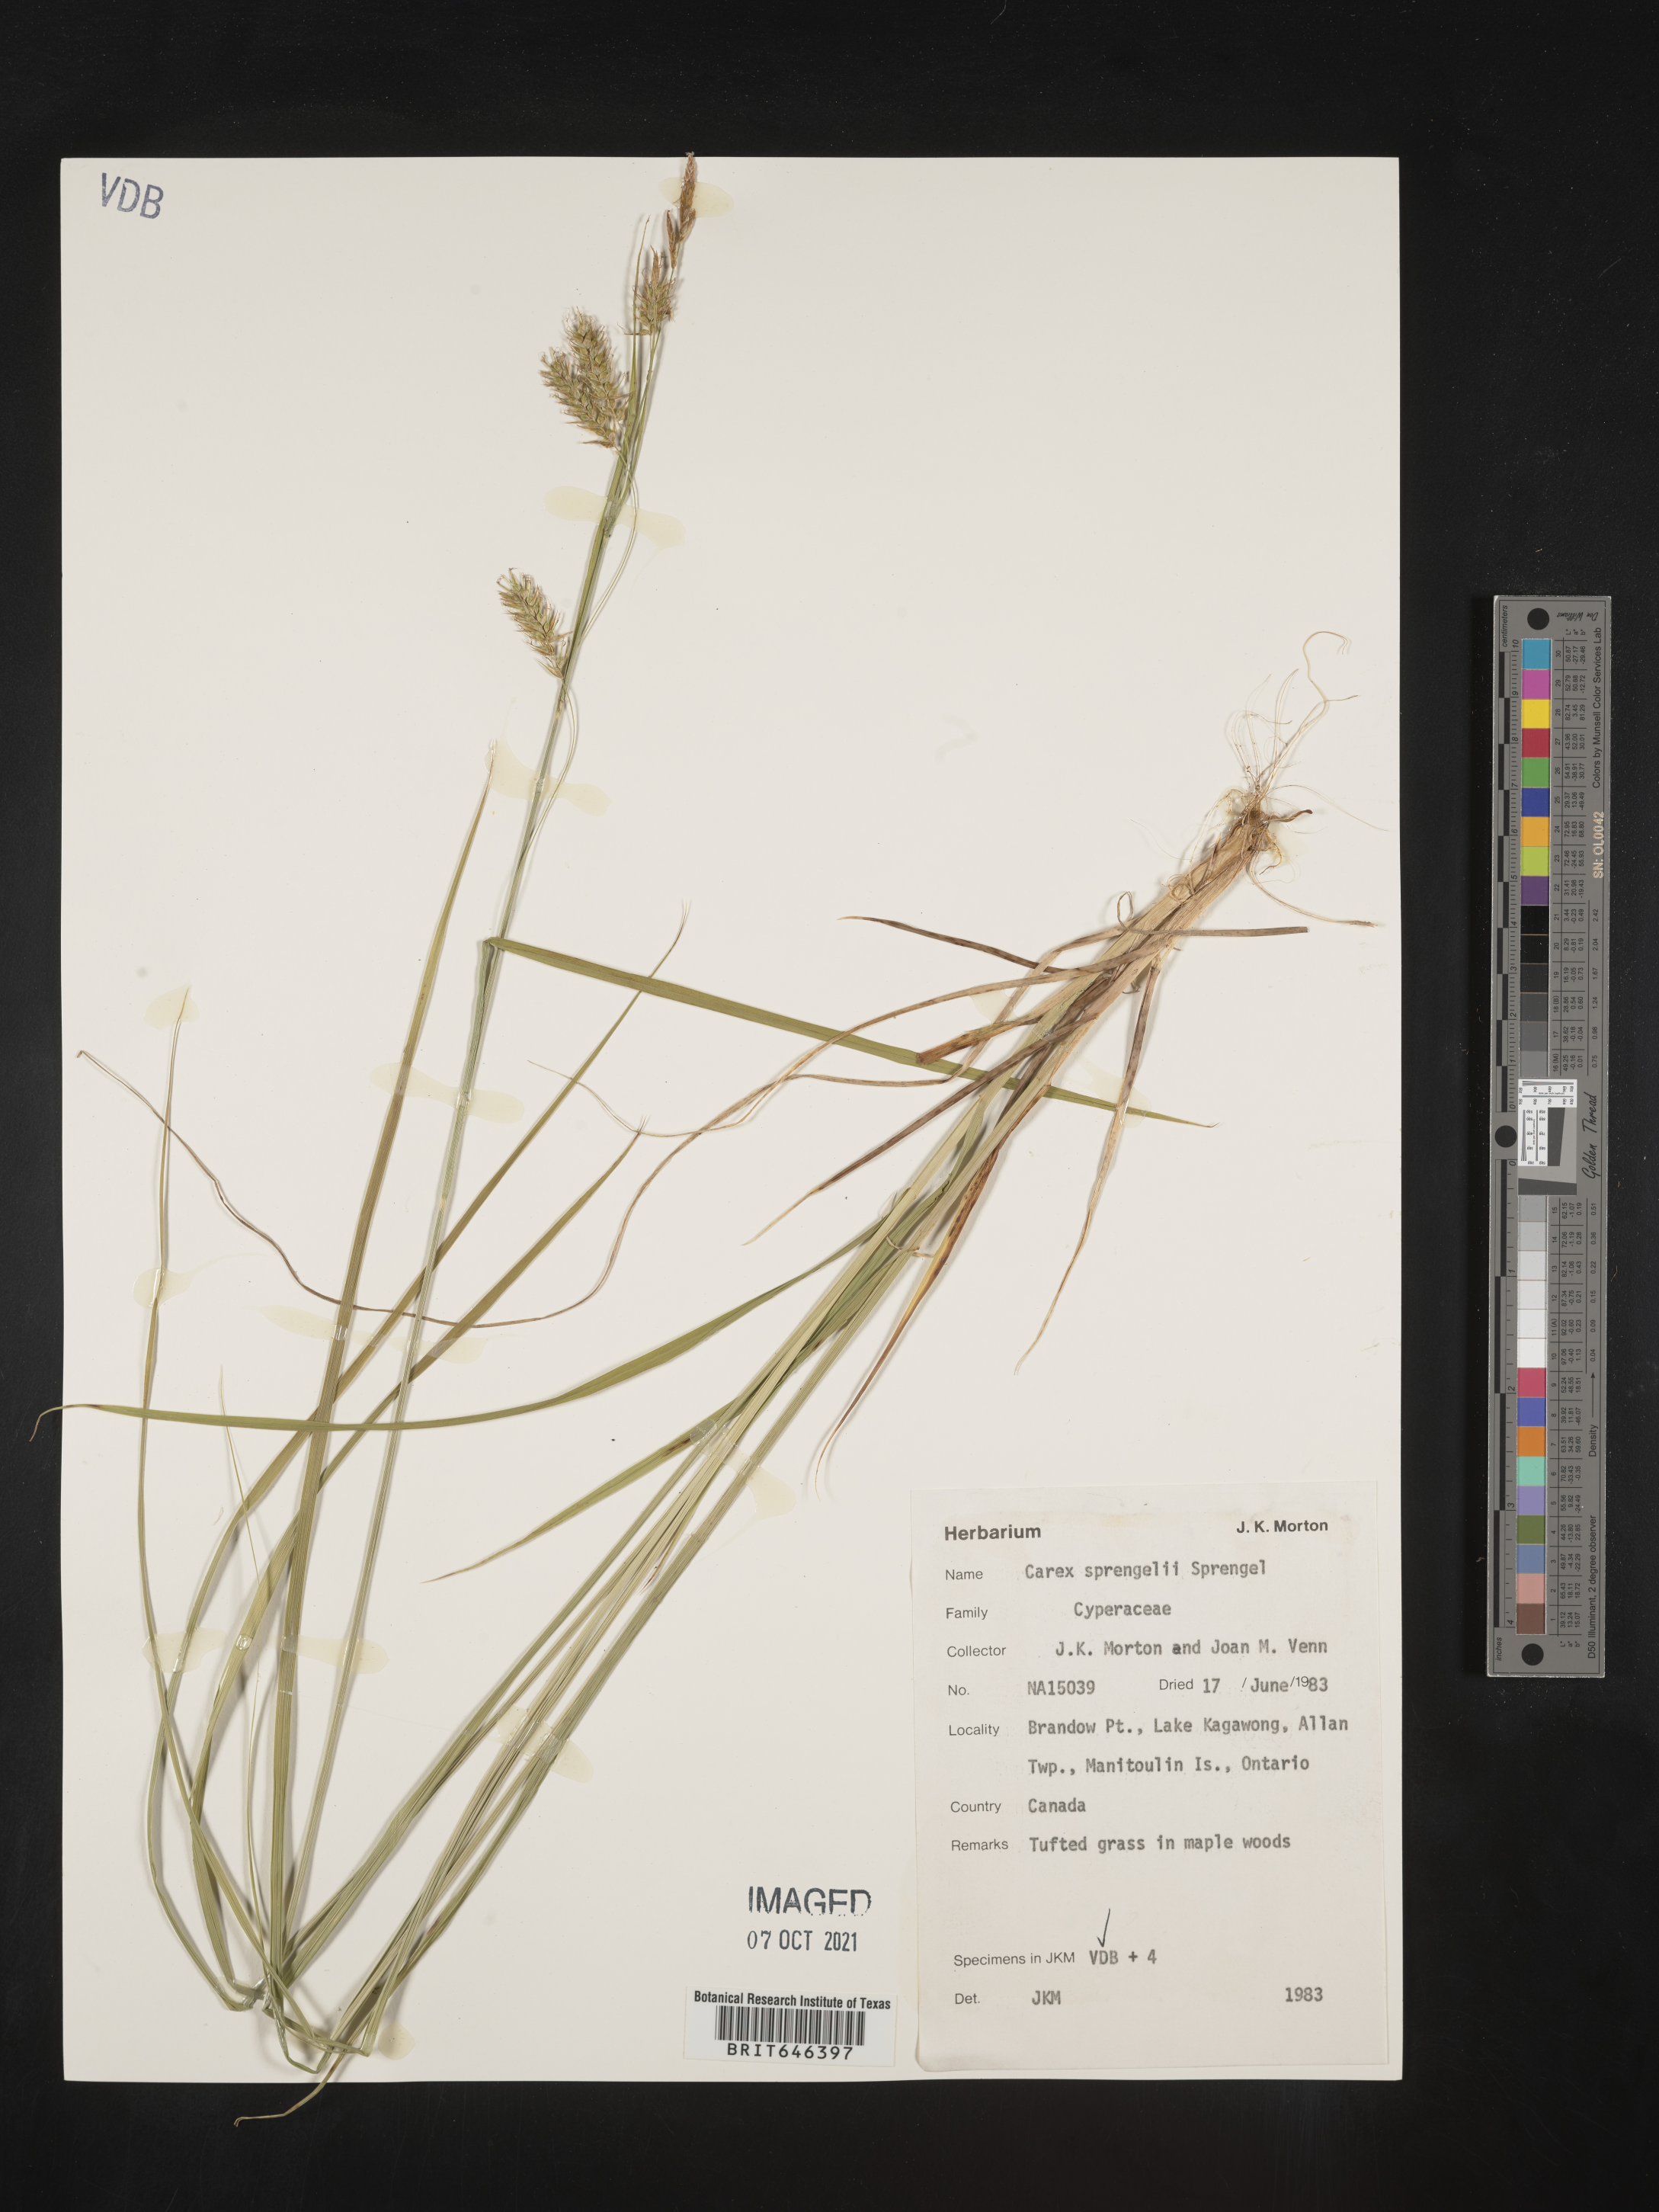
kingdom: Plantae
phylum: Tracheophyta
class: Liliopsida
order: Poales
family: Cyperaceae
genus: Carex
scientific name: Carex sprengelii
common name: Long-beaked sedge
